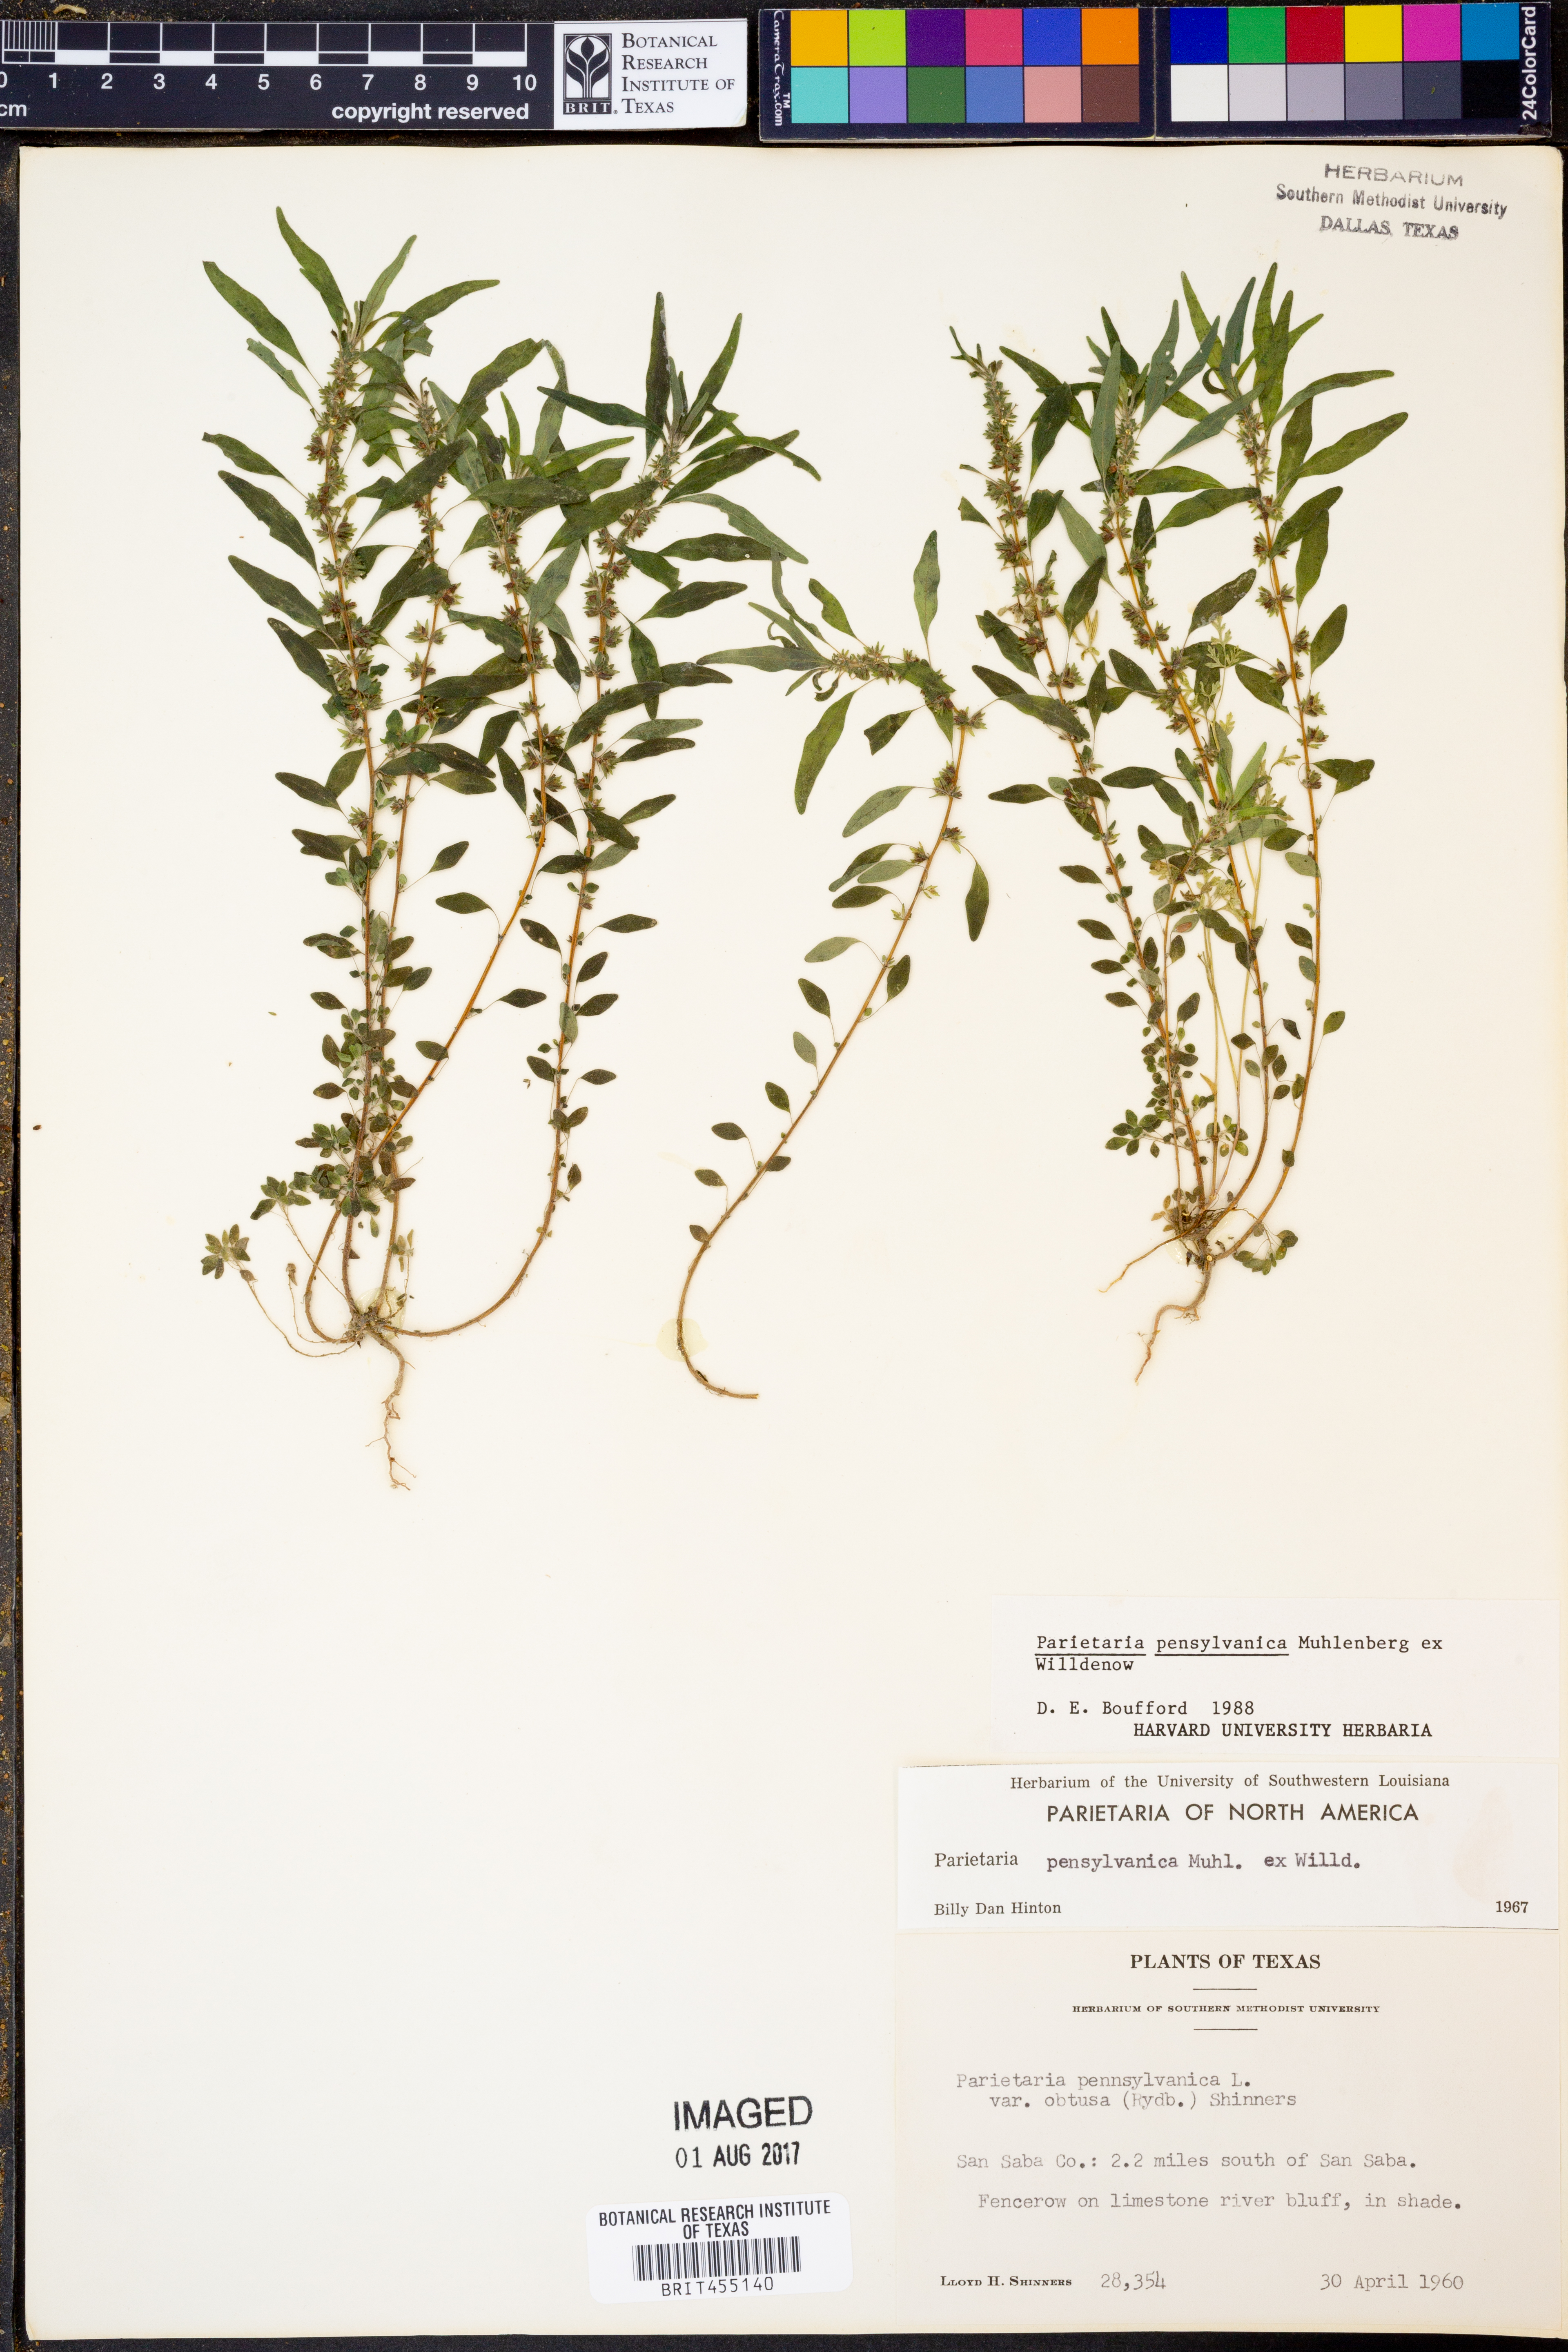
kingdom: Plantae
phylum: Tracheophyta
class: Magnoliopsida
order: Rosales
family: Urticaceae
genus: Parietaria
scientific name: Parietaria pensylvanica
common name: Pennsylvania pellitory
